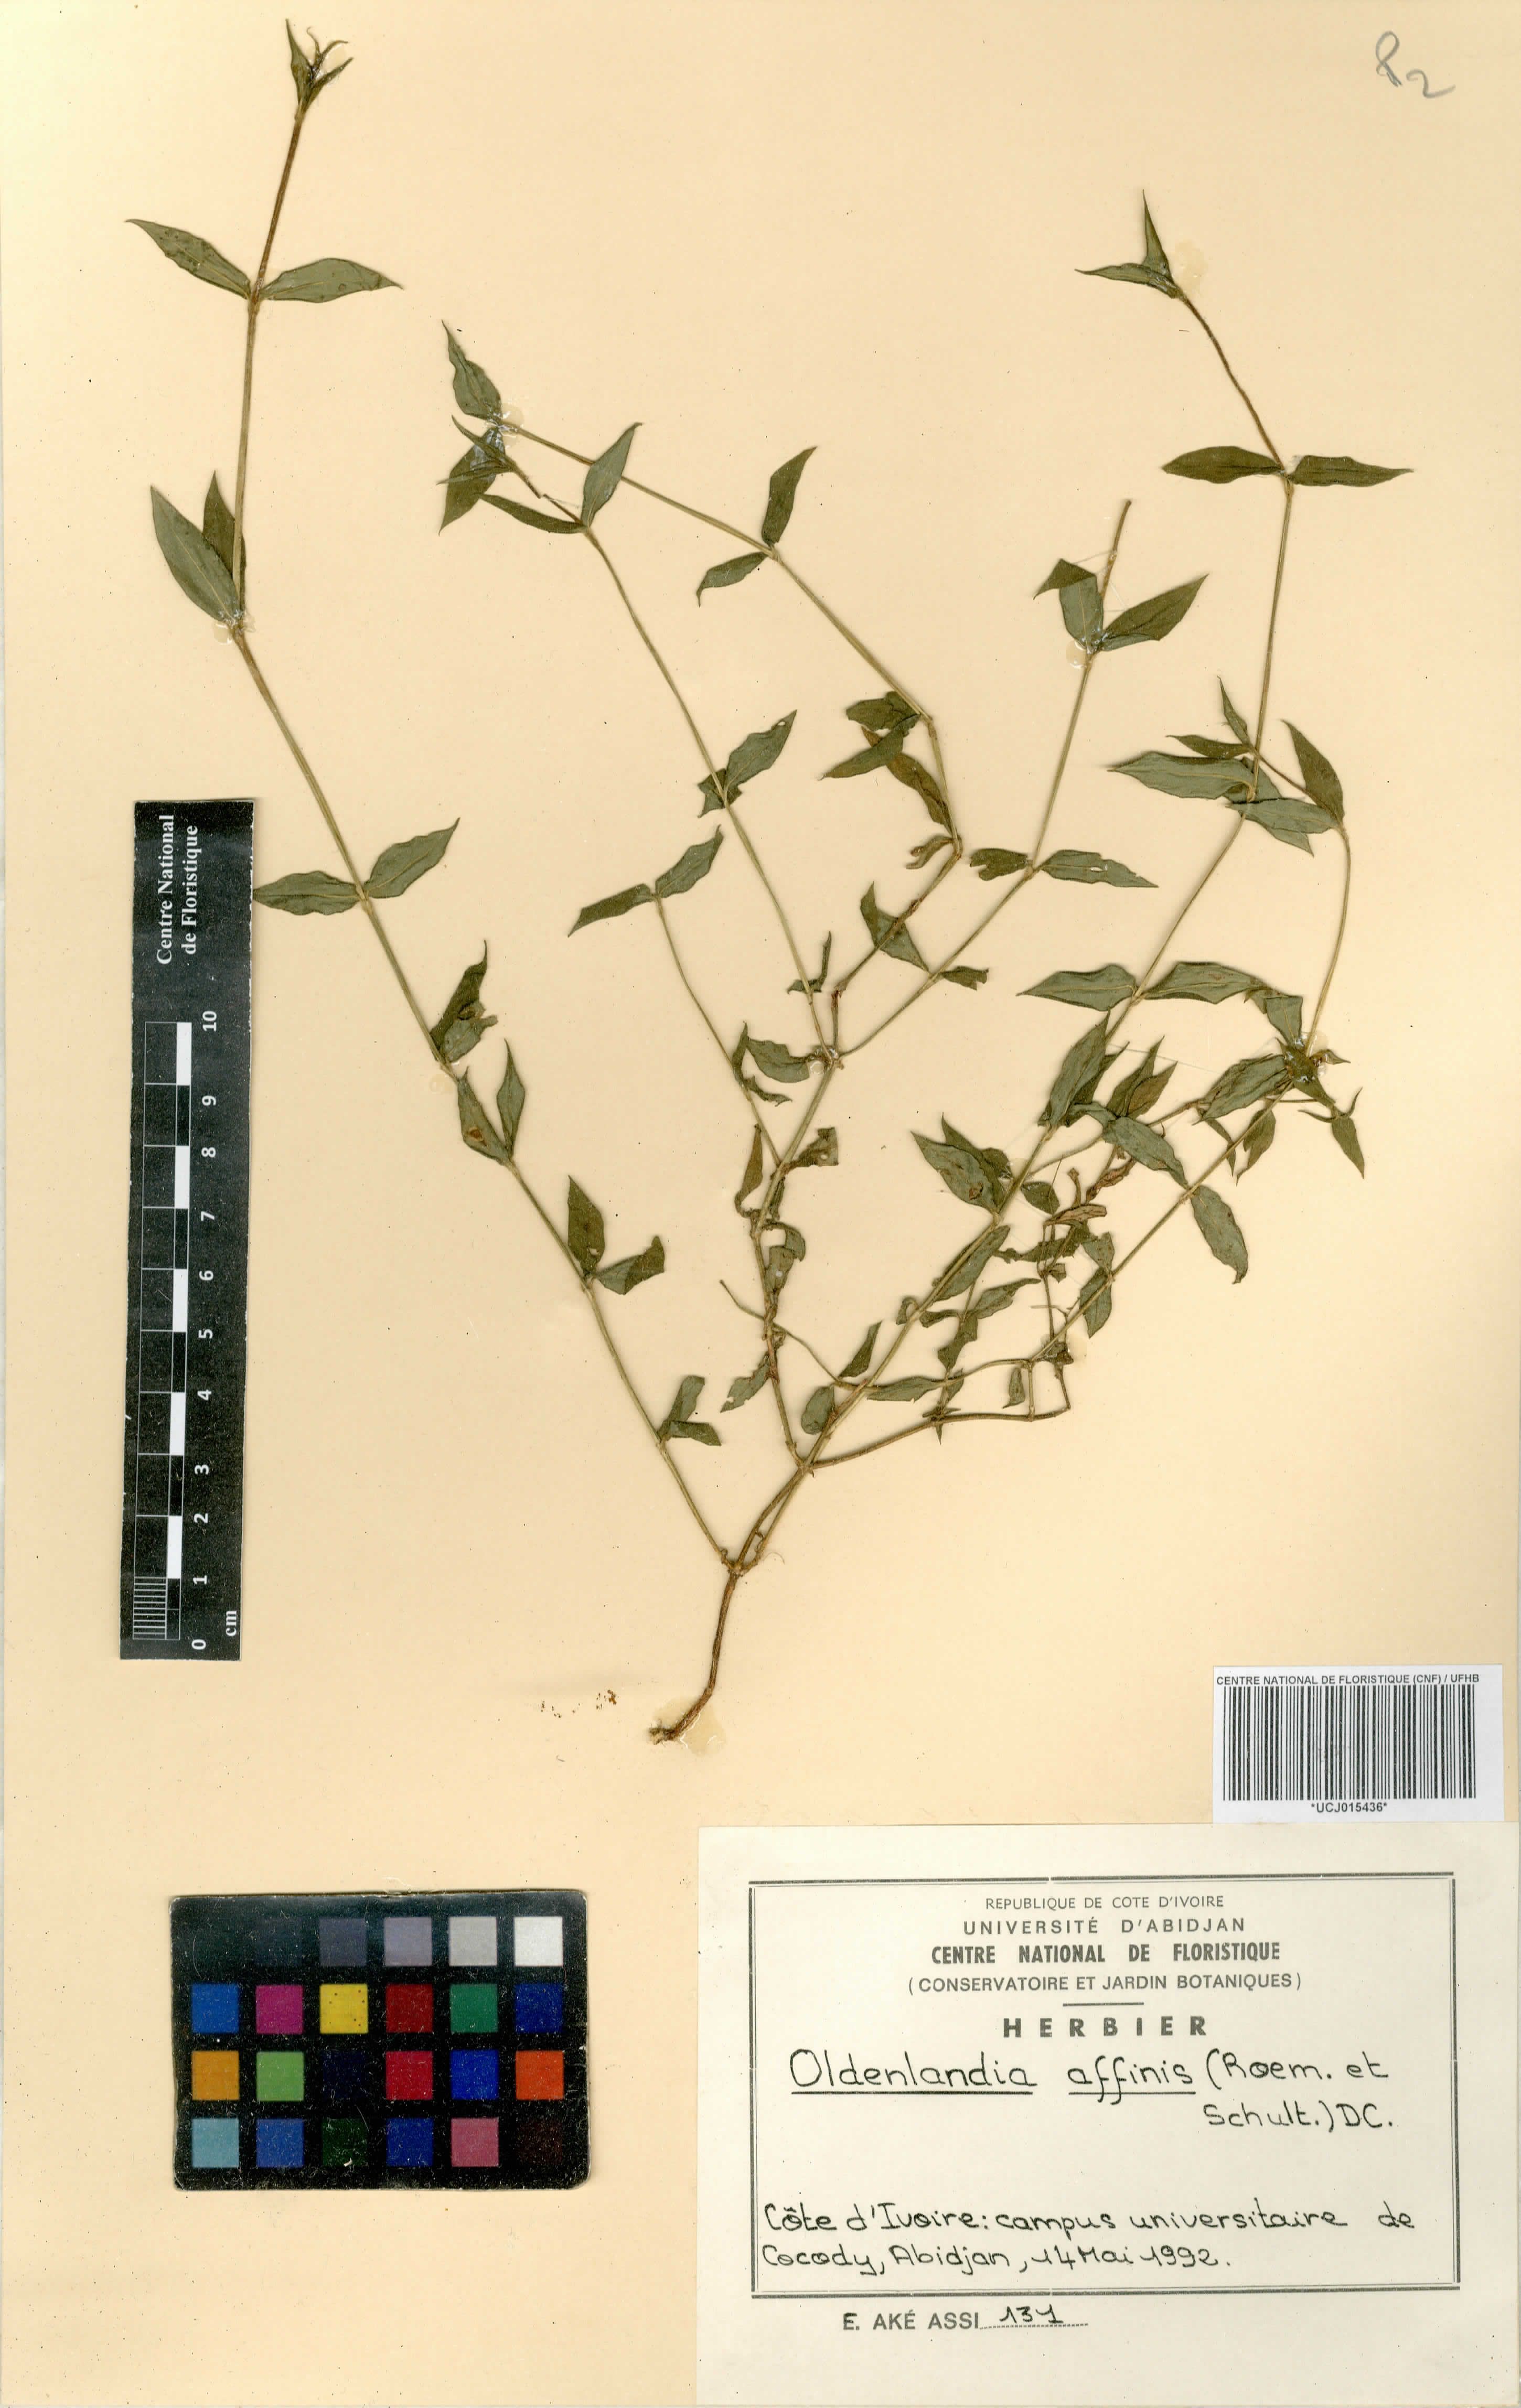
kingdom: Plantae
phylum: Tracheophyta
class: Magnoliopsida
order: Gentianales
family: Rubiaceae
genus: Oldenlandia
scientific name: Oldenlandia affinis
